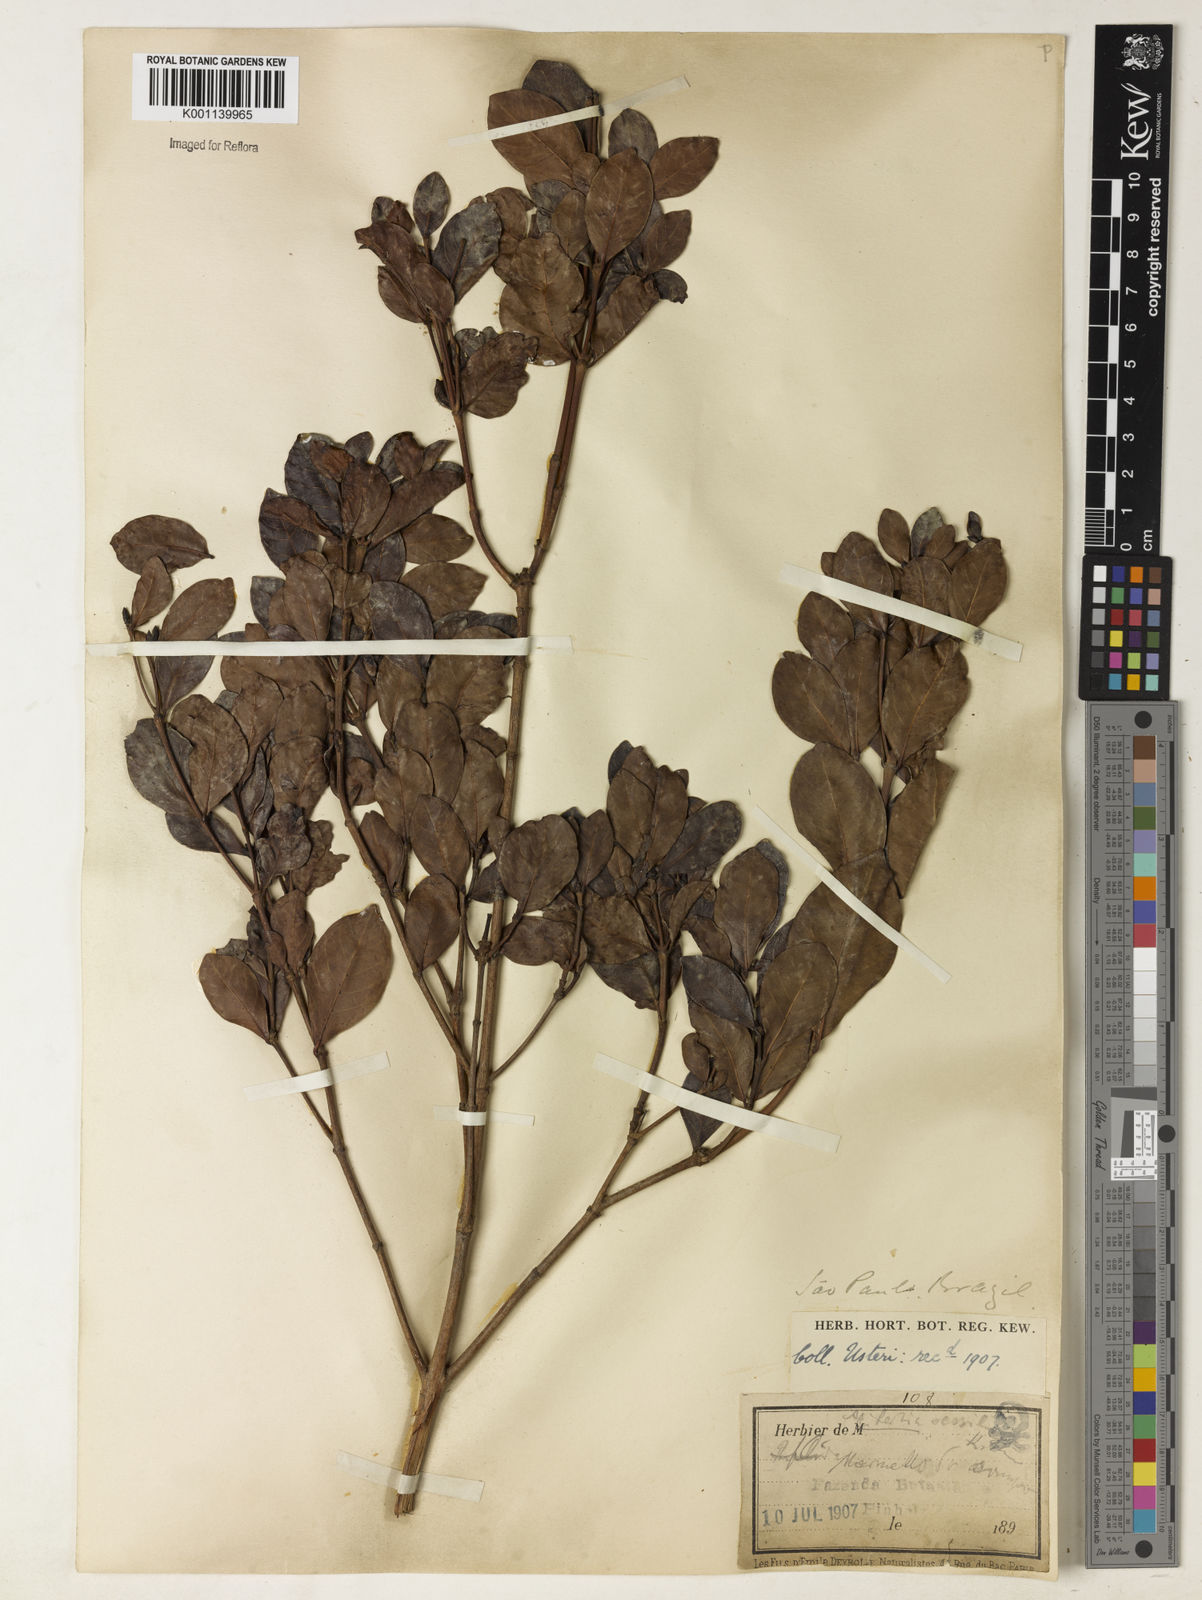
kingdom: Plantae
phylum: Tracheophyta
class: Magnoliopsida
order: Gentianales
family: Rubiaceae
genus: Cordiera
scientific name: Cordiera concolor
